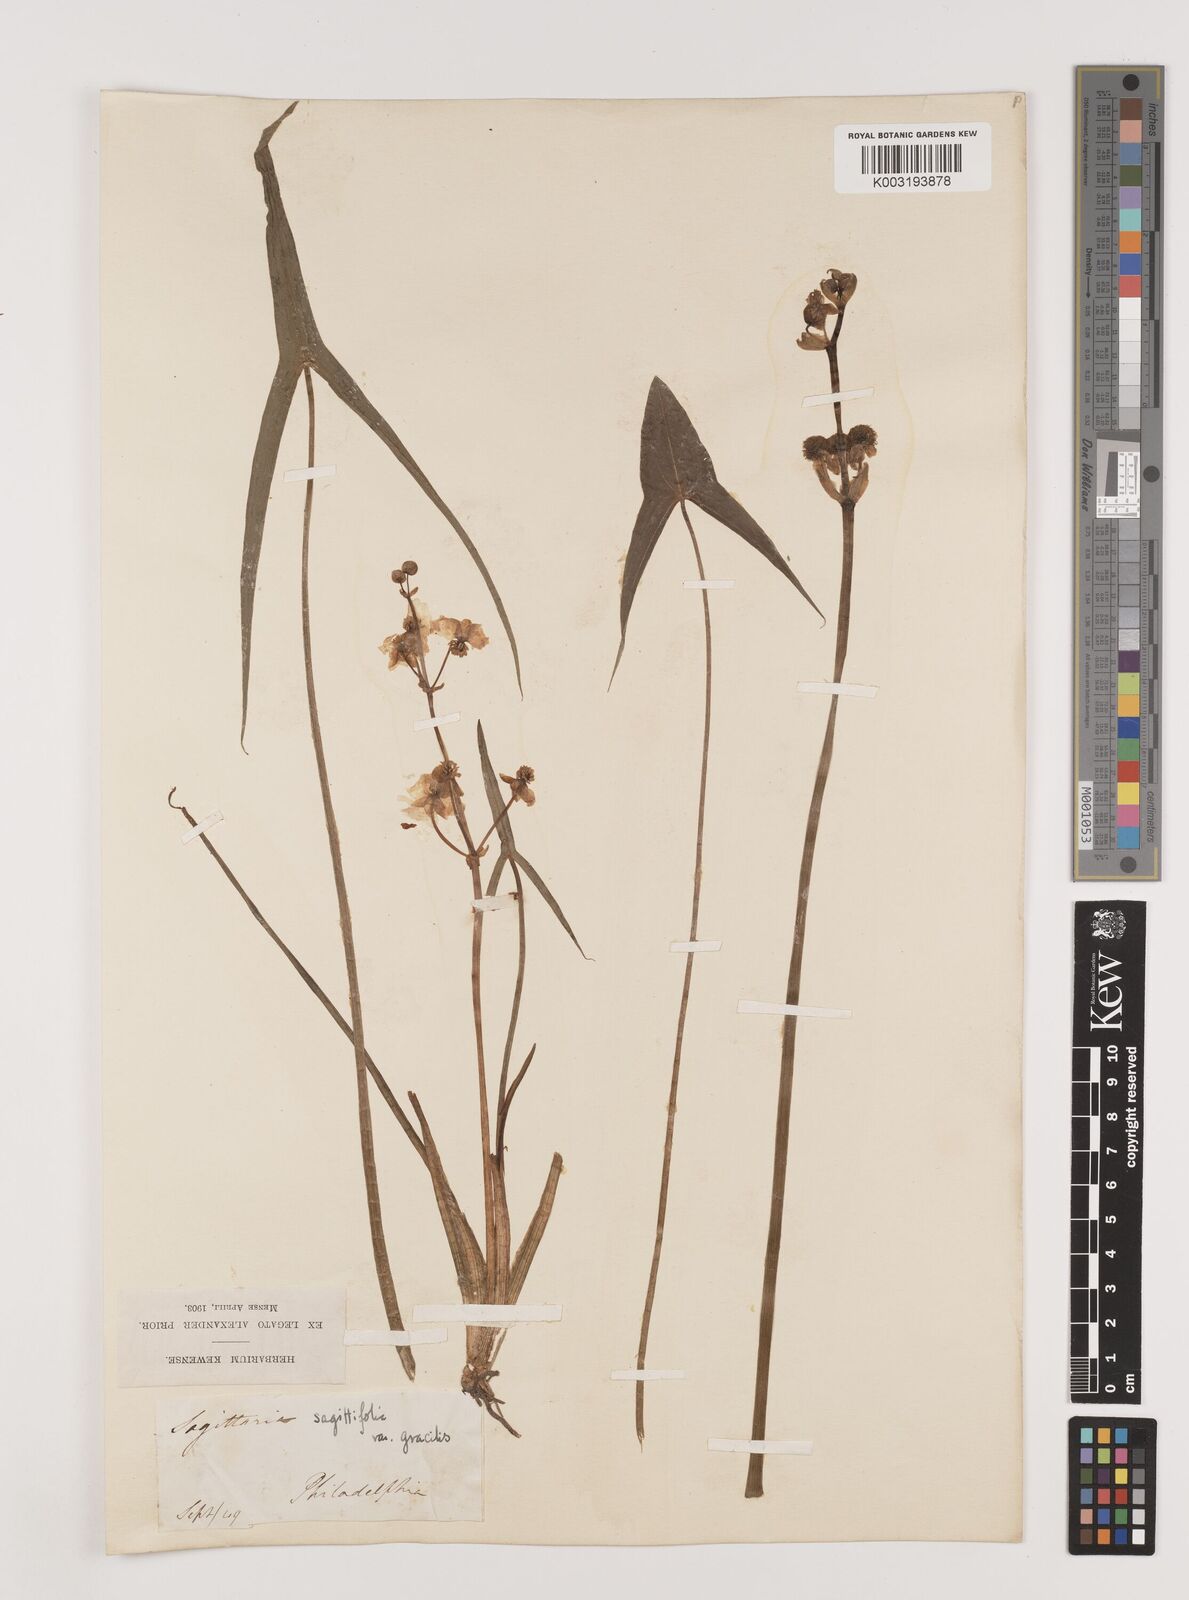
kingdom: Plantae
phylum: Tracheophyta
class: Liliopsida
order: Alismatales
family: Alismataceae
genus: Sagittaria
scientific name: Sagittaria latifolia
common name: Duck-potato
